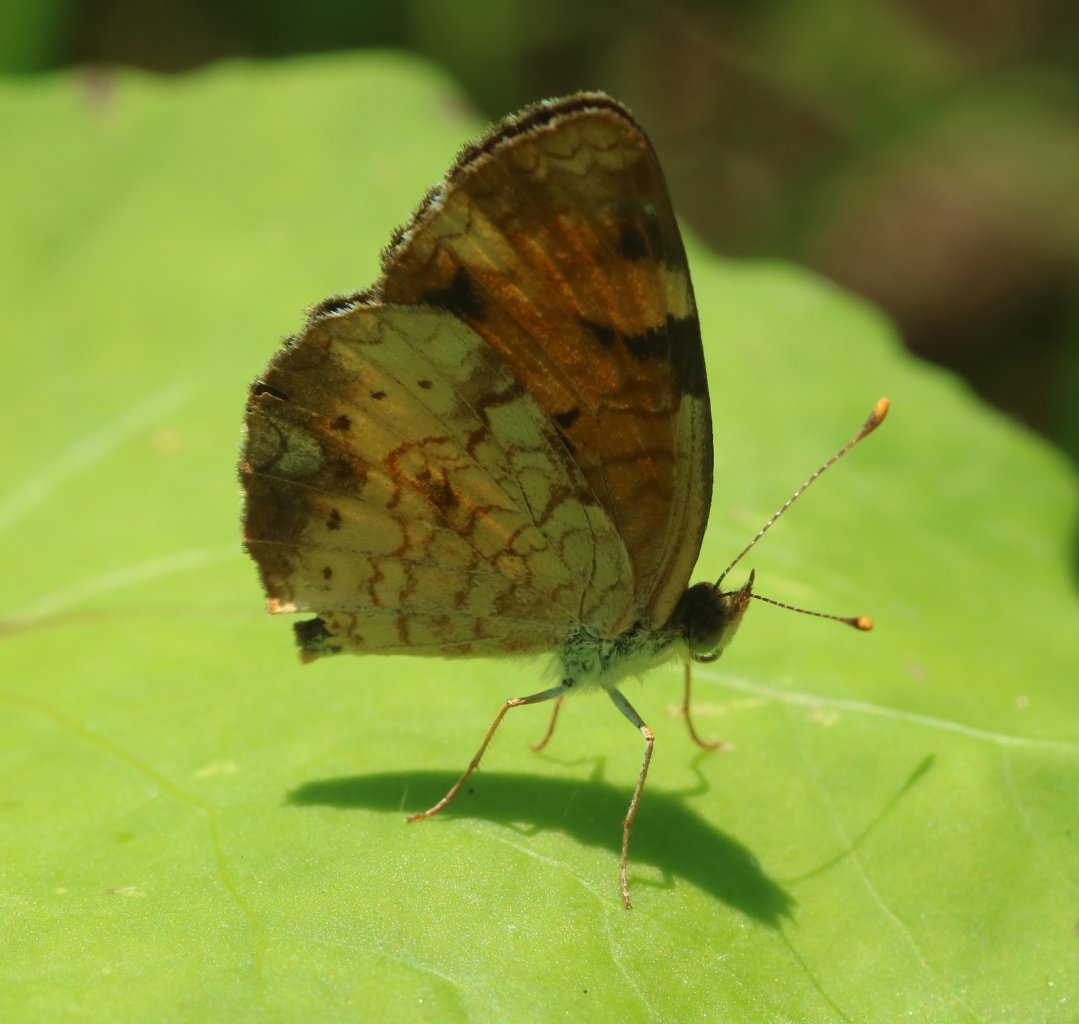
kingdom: Animalia
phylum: Arthropoda
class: Insecta
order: Lepidoptera
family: Nymphalidae
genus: Phyciodes
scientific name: Phyciodes tharos
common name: Northern Crescent
